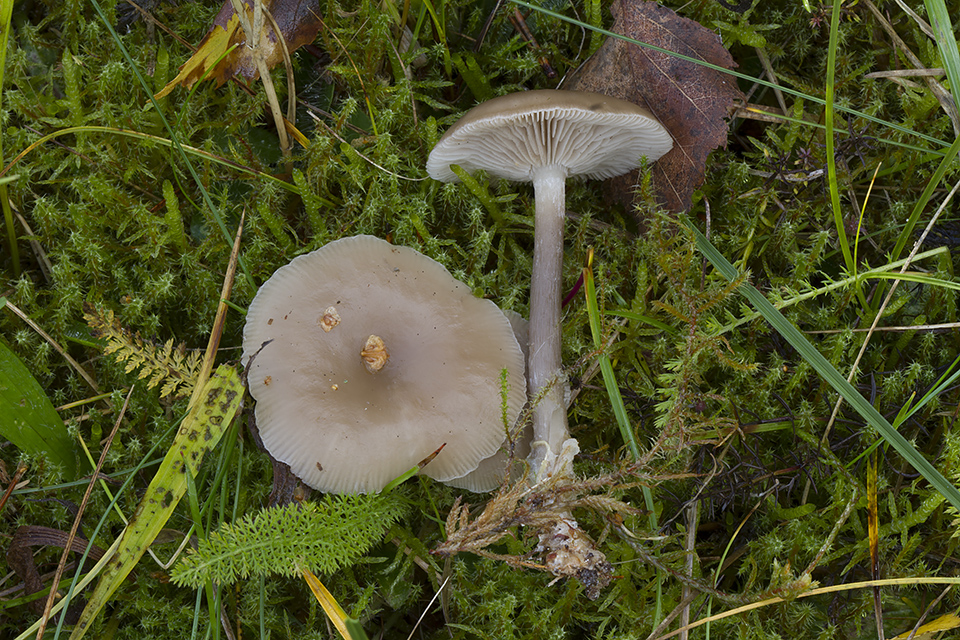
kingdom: Fungi
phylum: Basidiomycota
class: Agaricomycetes
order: Agaricales
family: Tricholomataceae
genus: Clitocybe
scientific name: Clitocybe vibecina
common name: randstribet tragthat
